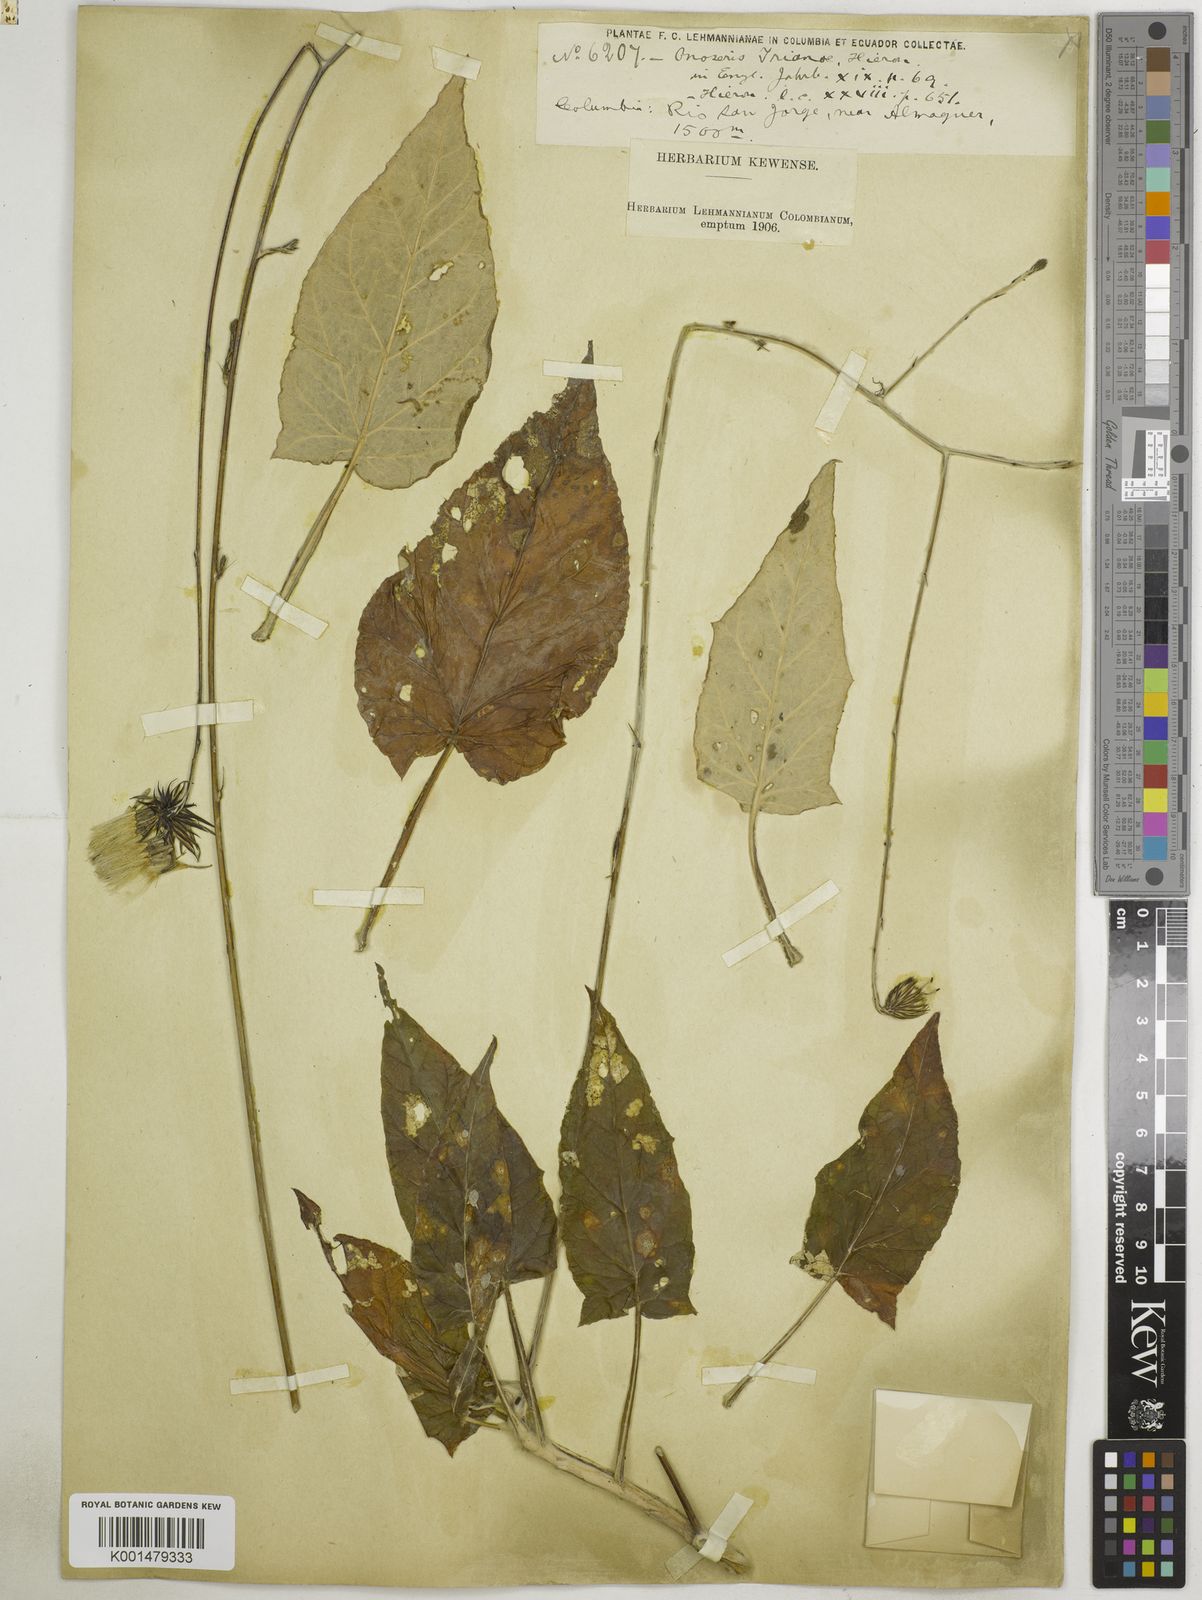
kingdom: Plantae
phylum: Tracheophyta
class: Magnoliopsida
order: Asterales
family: Asteraceae
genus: Onoseris
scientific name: Onoseris drakeana
